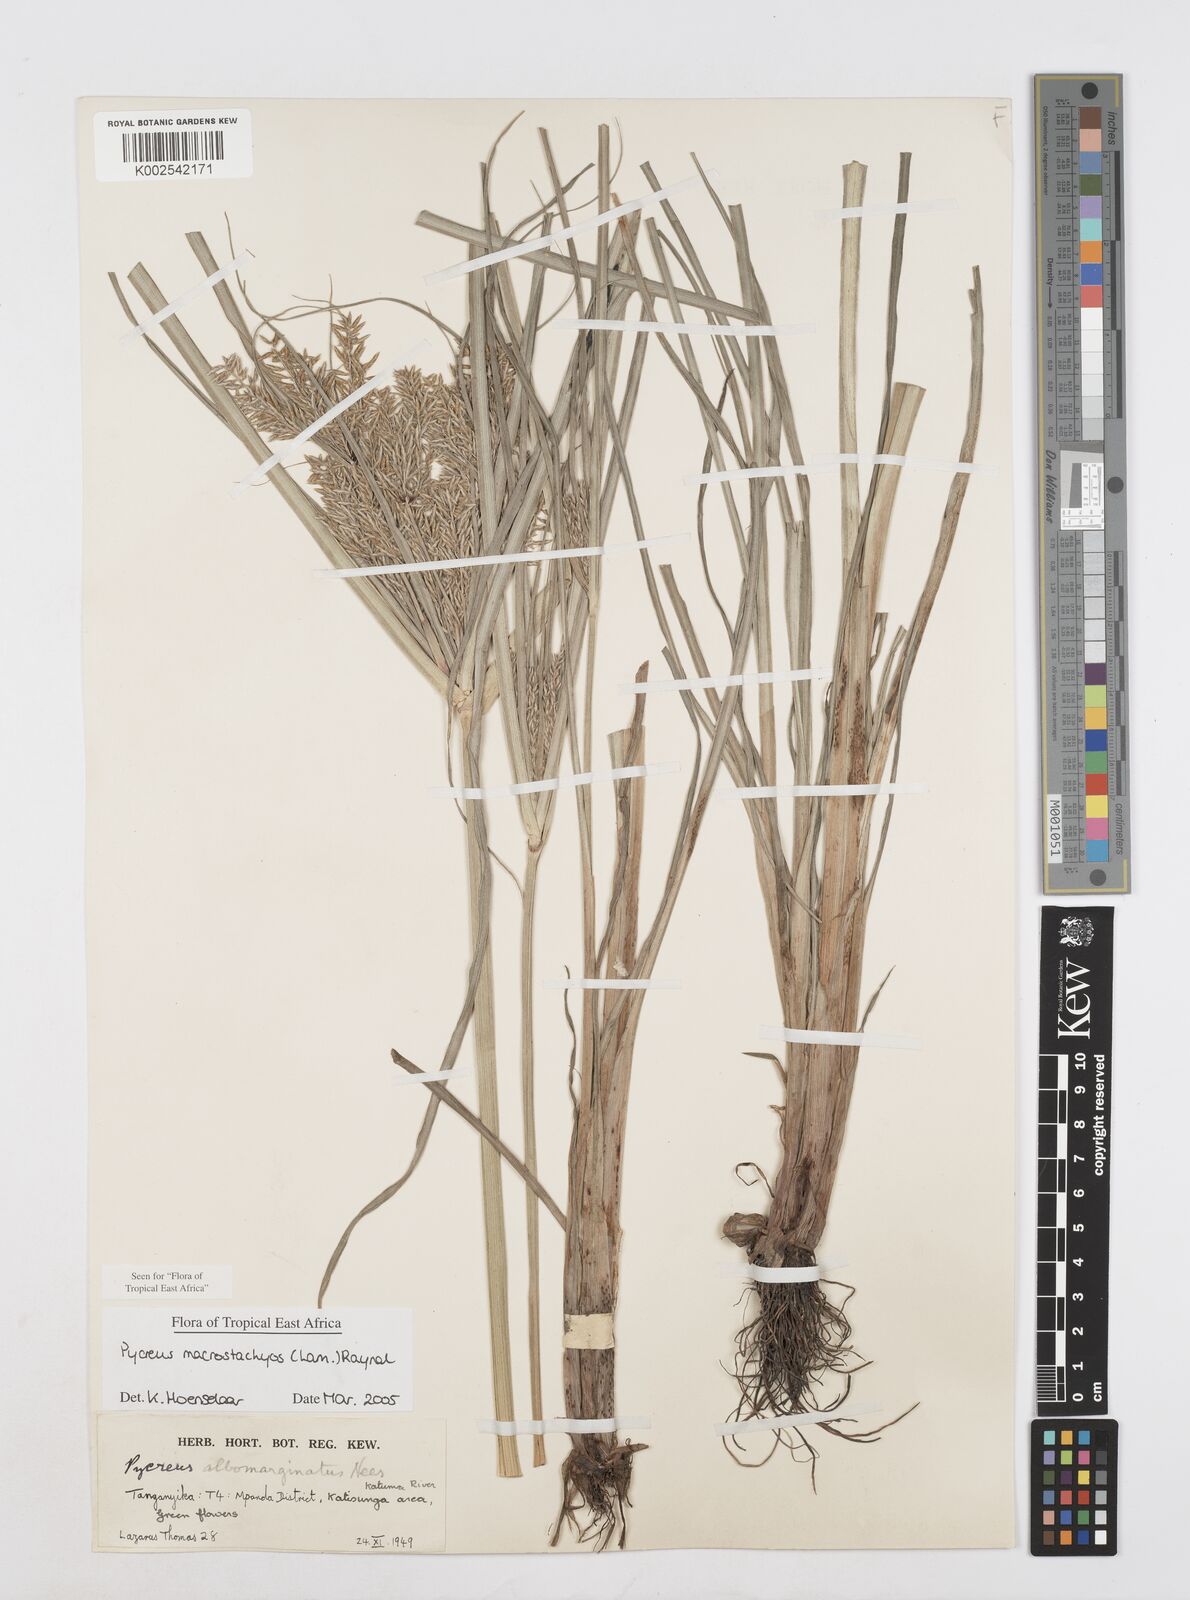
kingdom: Plantae
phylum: Tracheophyta
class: Liliopsida
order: Poales
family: Cyperaceae
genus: Cyperus
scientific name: Cyperus macrostachyos
